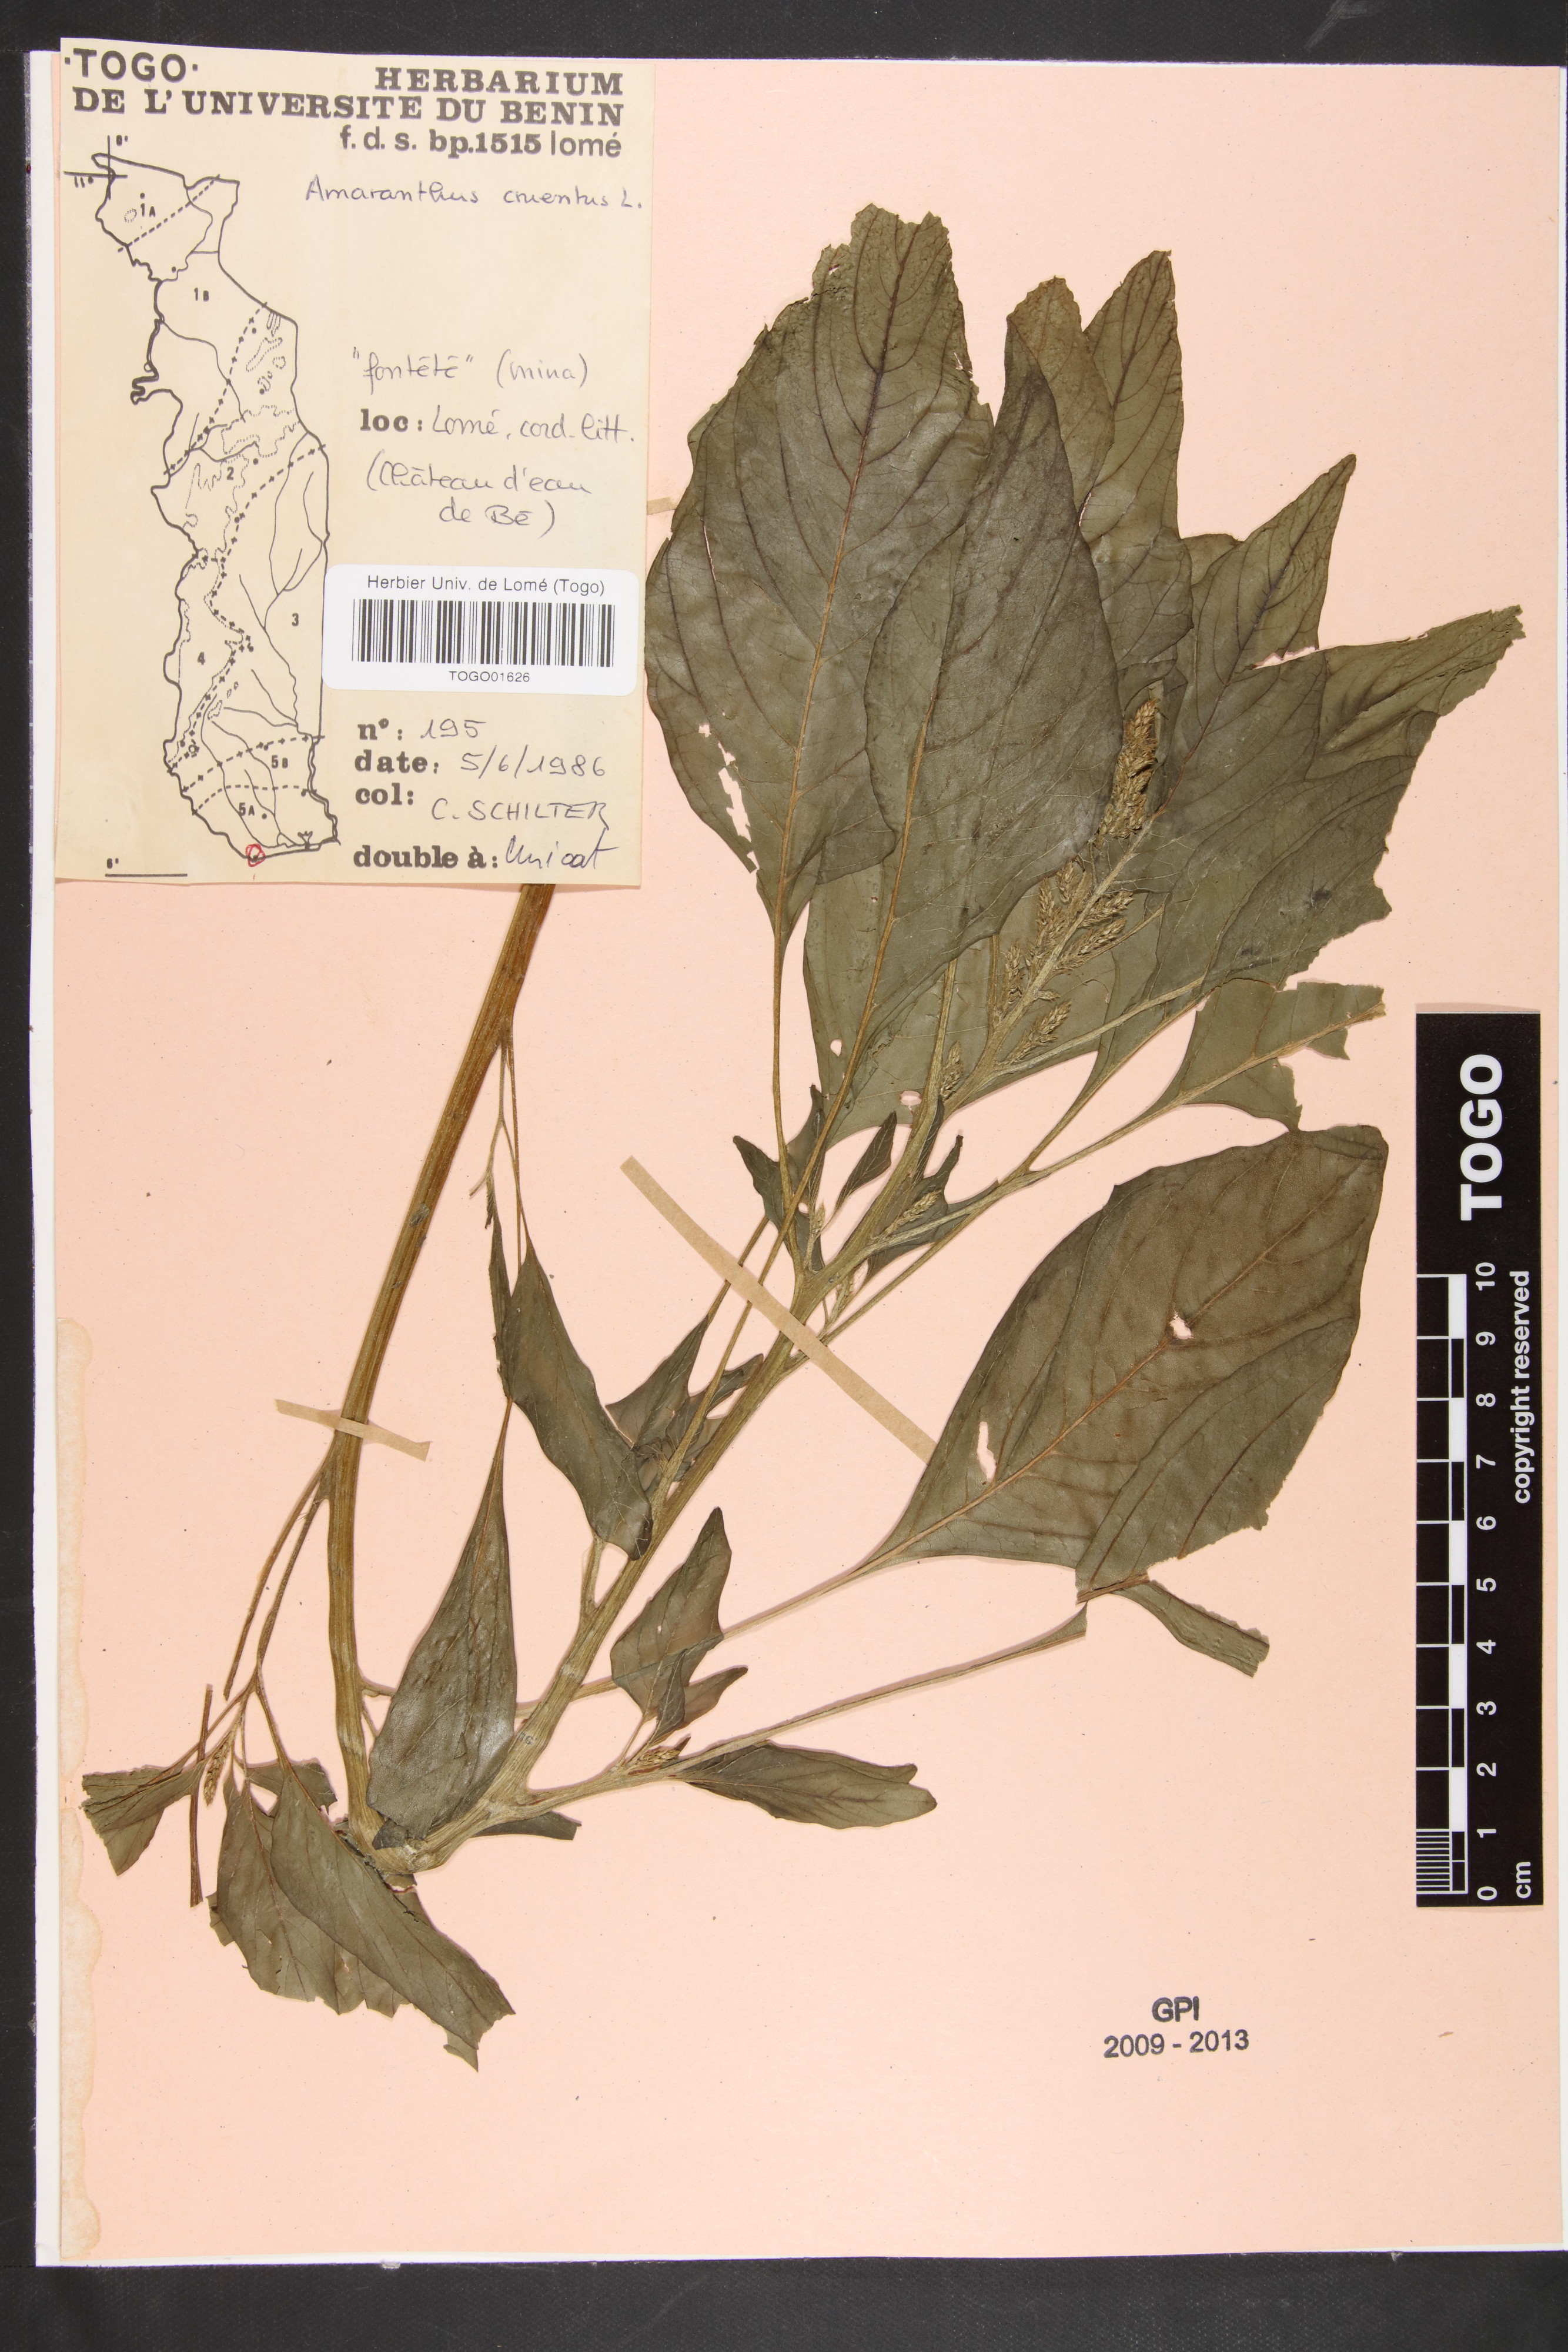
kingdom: Plantae
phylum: Tracheophyta
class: Magnoliopsida
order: Caryophyllales
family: Amaranthaceae
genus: Amaranthus
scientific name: Amaranthus cruentus
